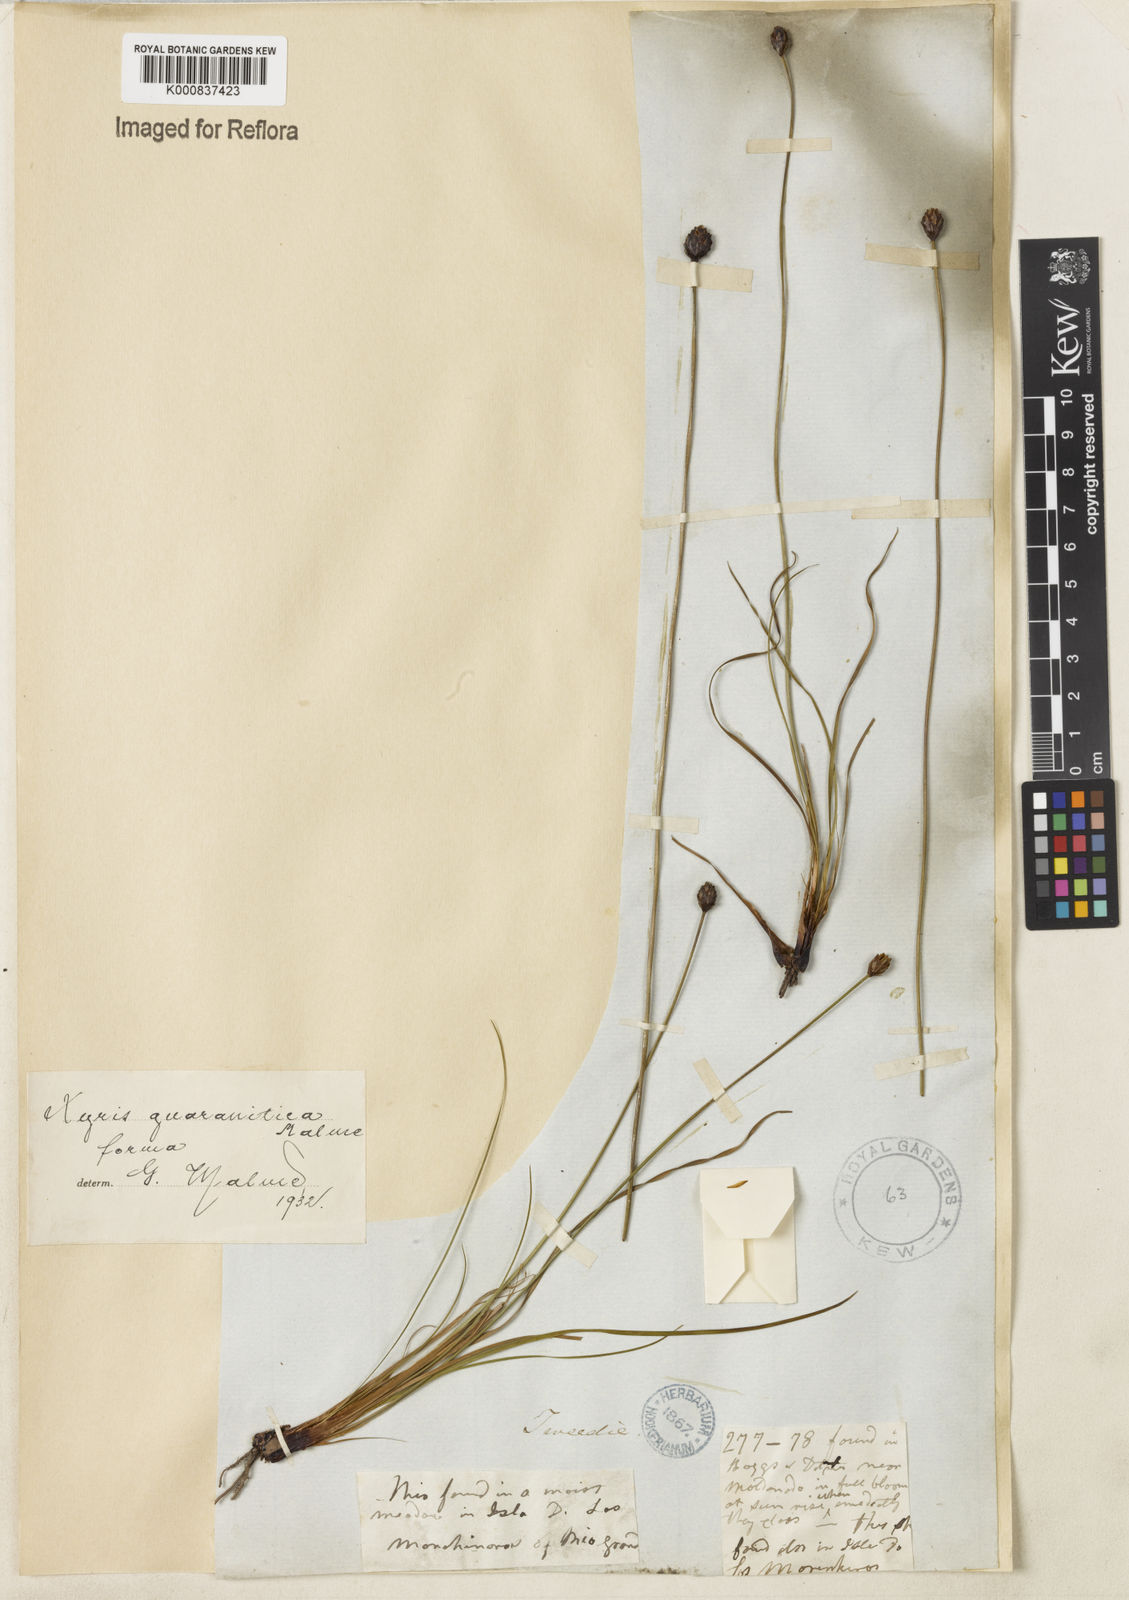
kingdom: Plantae
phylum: Tracheophyta
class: Liliopsida
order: Poales
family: Xyridaceae
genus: Xyris
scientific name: Xyris guaranitica
